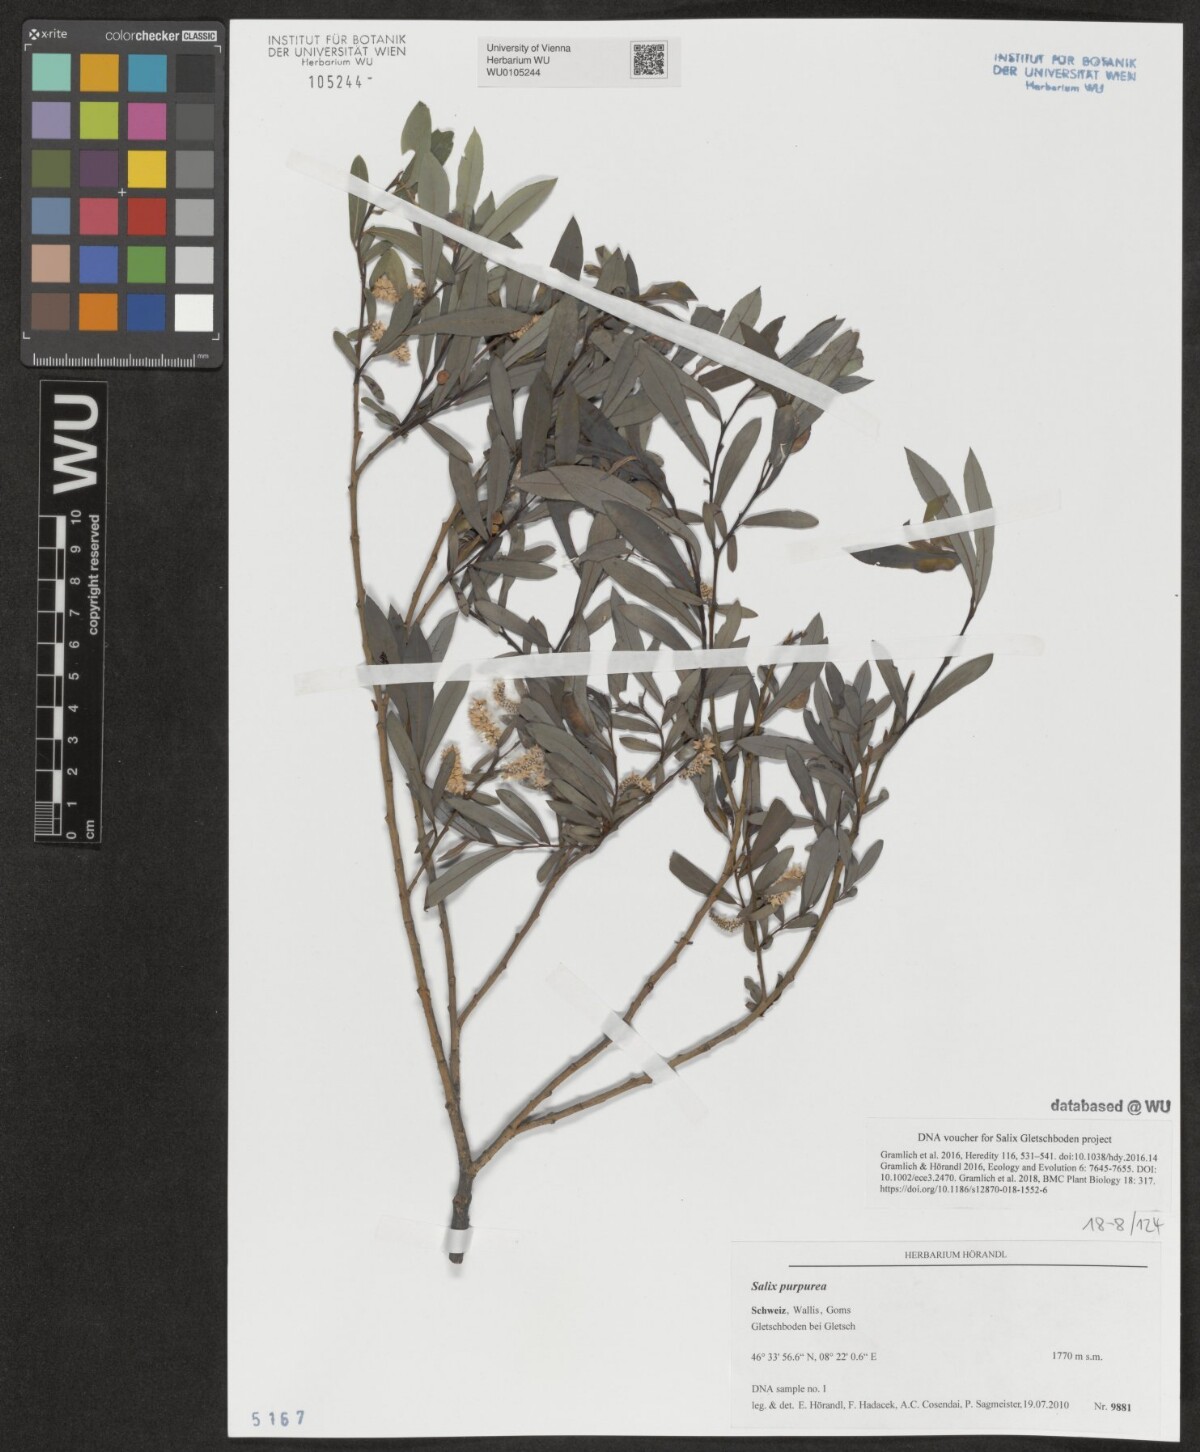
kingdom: Plantae
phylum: Tracheophyta
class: Magnoliopsida
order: Malpighiales
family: Salicaceae
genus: Salix
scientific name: Salix purpurea
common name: Purple willow
